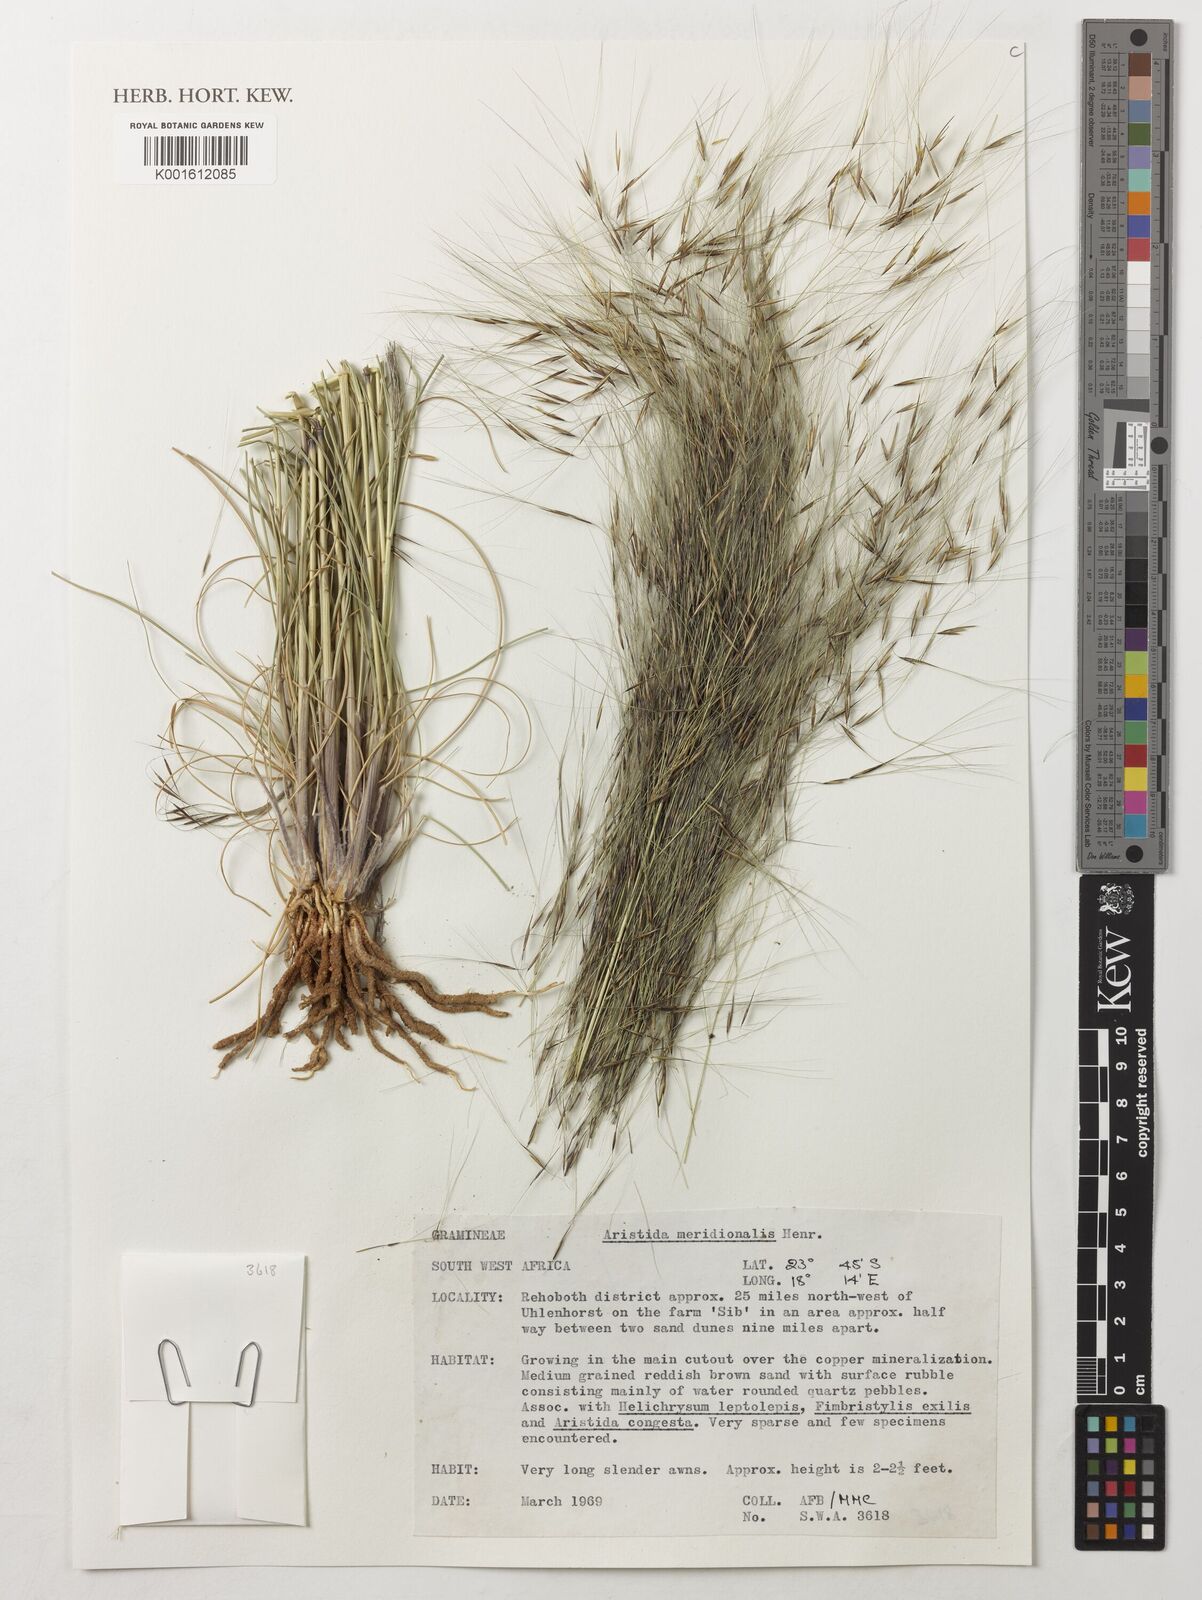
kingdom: Plantae
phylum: Tracheophyta
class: Liliopsida
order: Poales
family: Poaceae
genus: Aristida
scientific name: Aristida meridionalis
